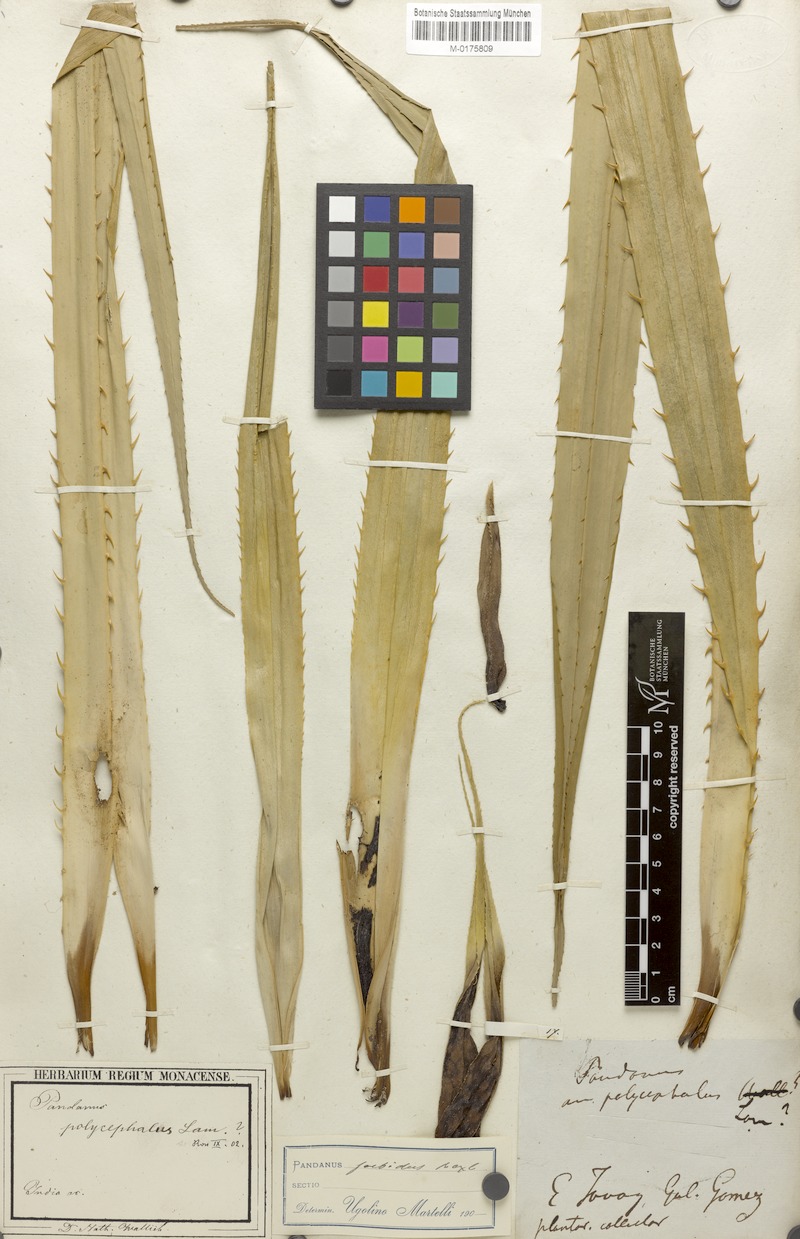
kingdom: Plantae
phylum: Tracheophyta
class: Liliopsida
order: Pandanales
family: Pandanaceae
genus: Benstonea
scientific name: Benstonea foetida
